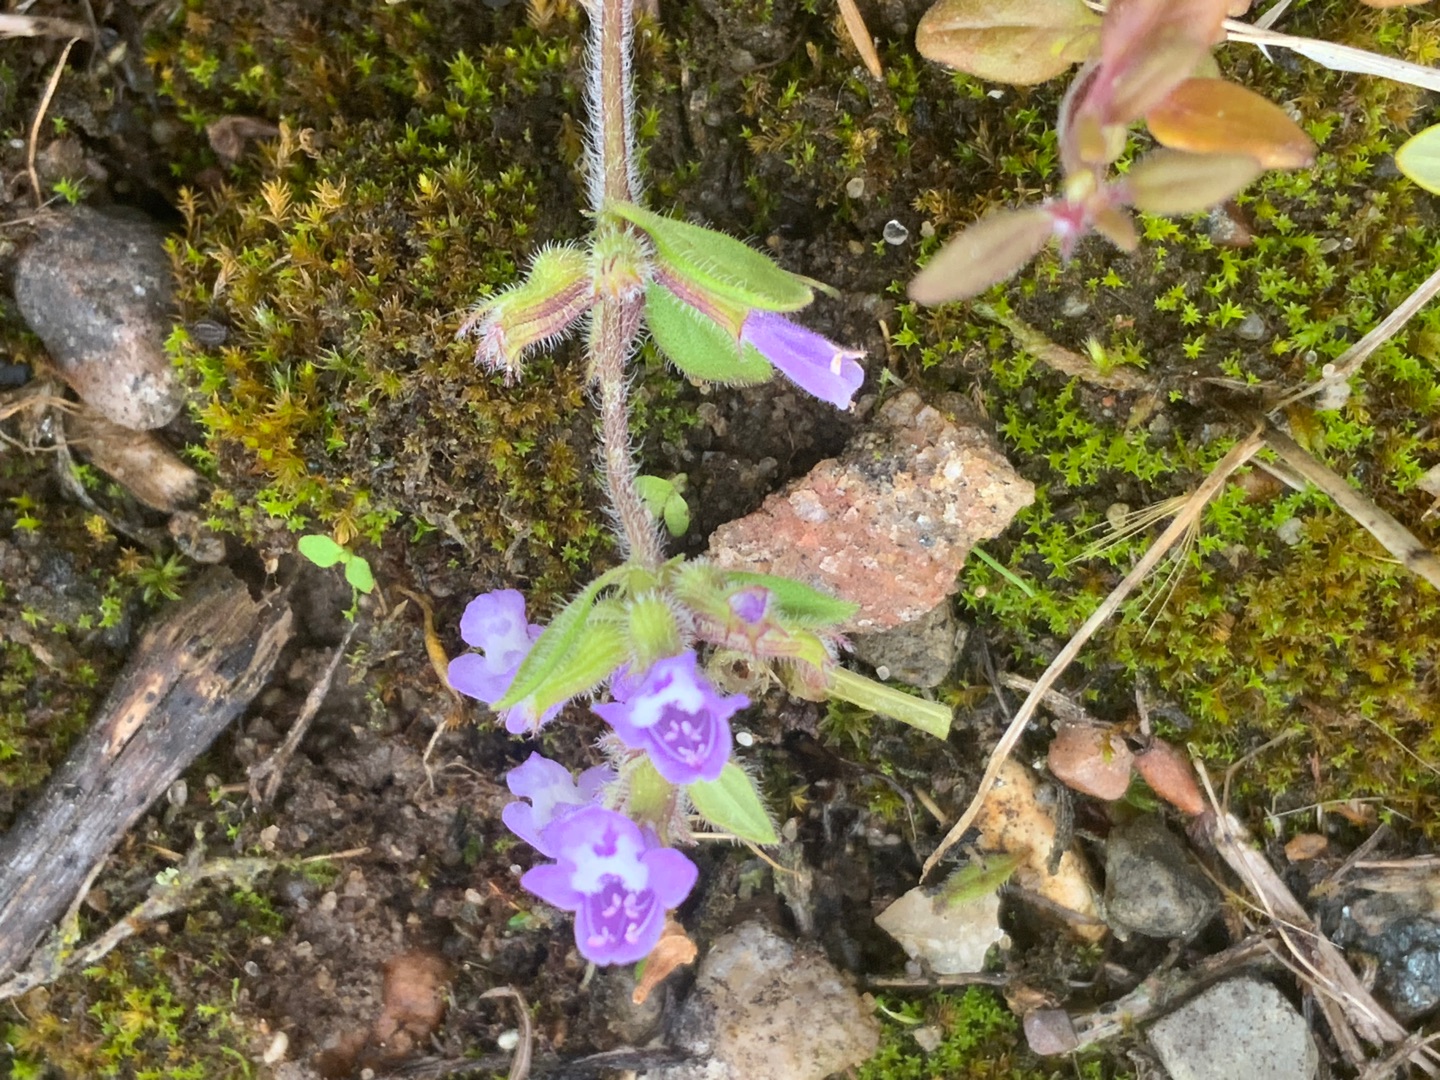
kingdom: Plantae
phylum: Tracheophyta
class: Magnoliopsida
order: Lamiales
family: Lamiaceae
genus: Clinopodium
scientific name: Clinopodium acinos
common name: Voldtimian
